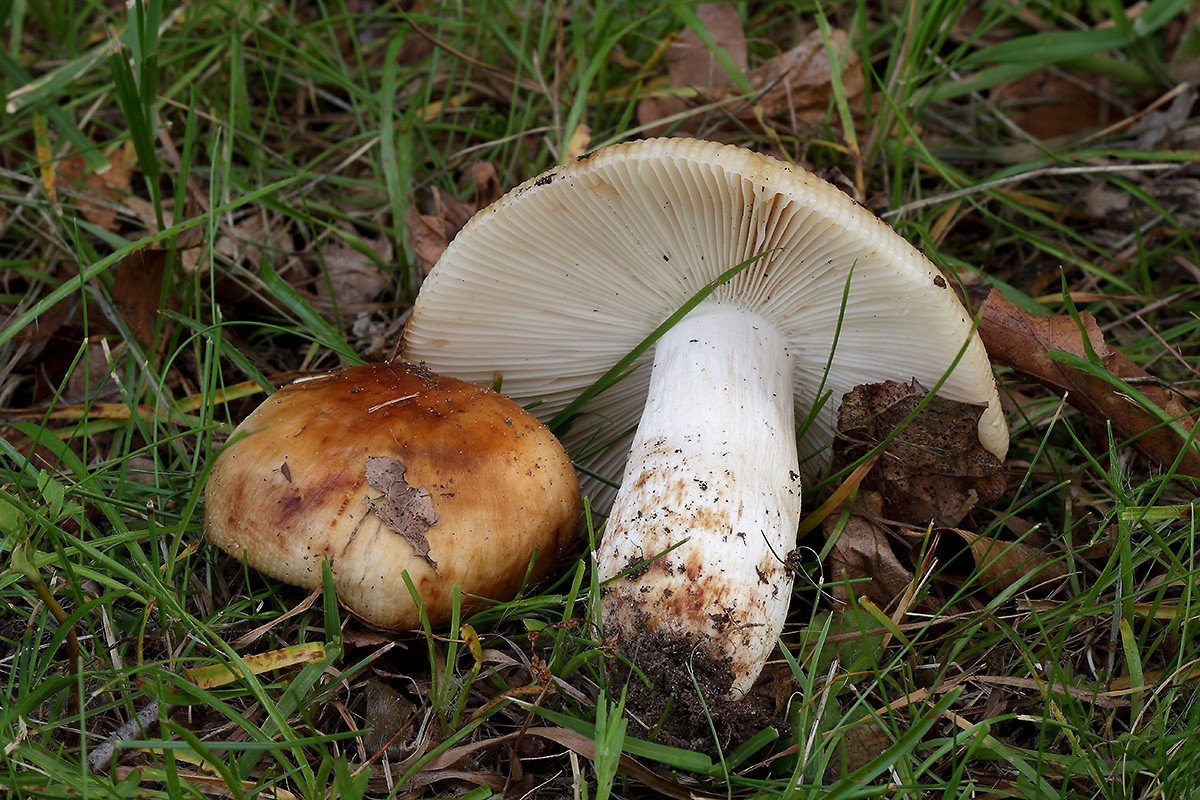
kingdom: Fungi
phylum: Basidiomycota
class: Agaricomycetes
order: Russulales
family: Russulaceae
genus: Russula
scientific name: Russula grata
